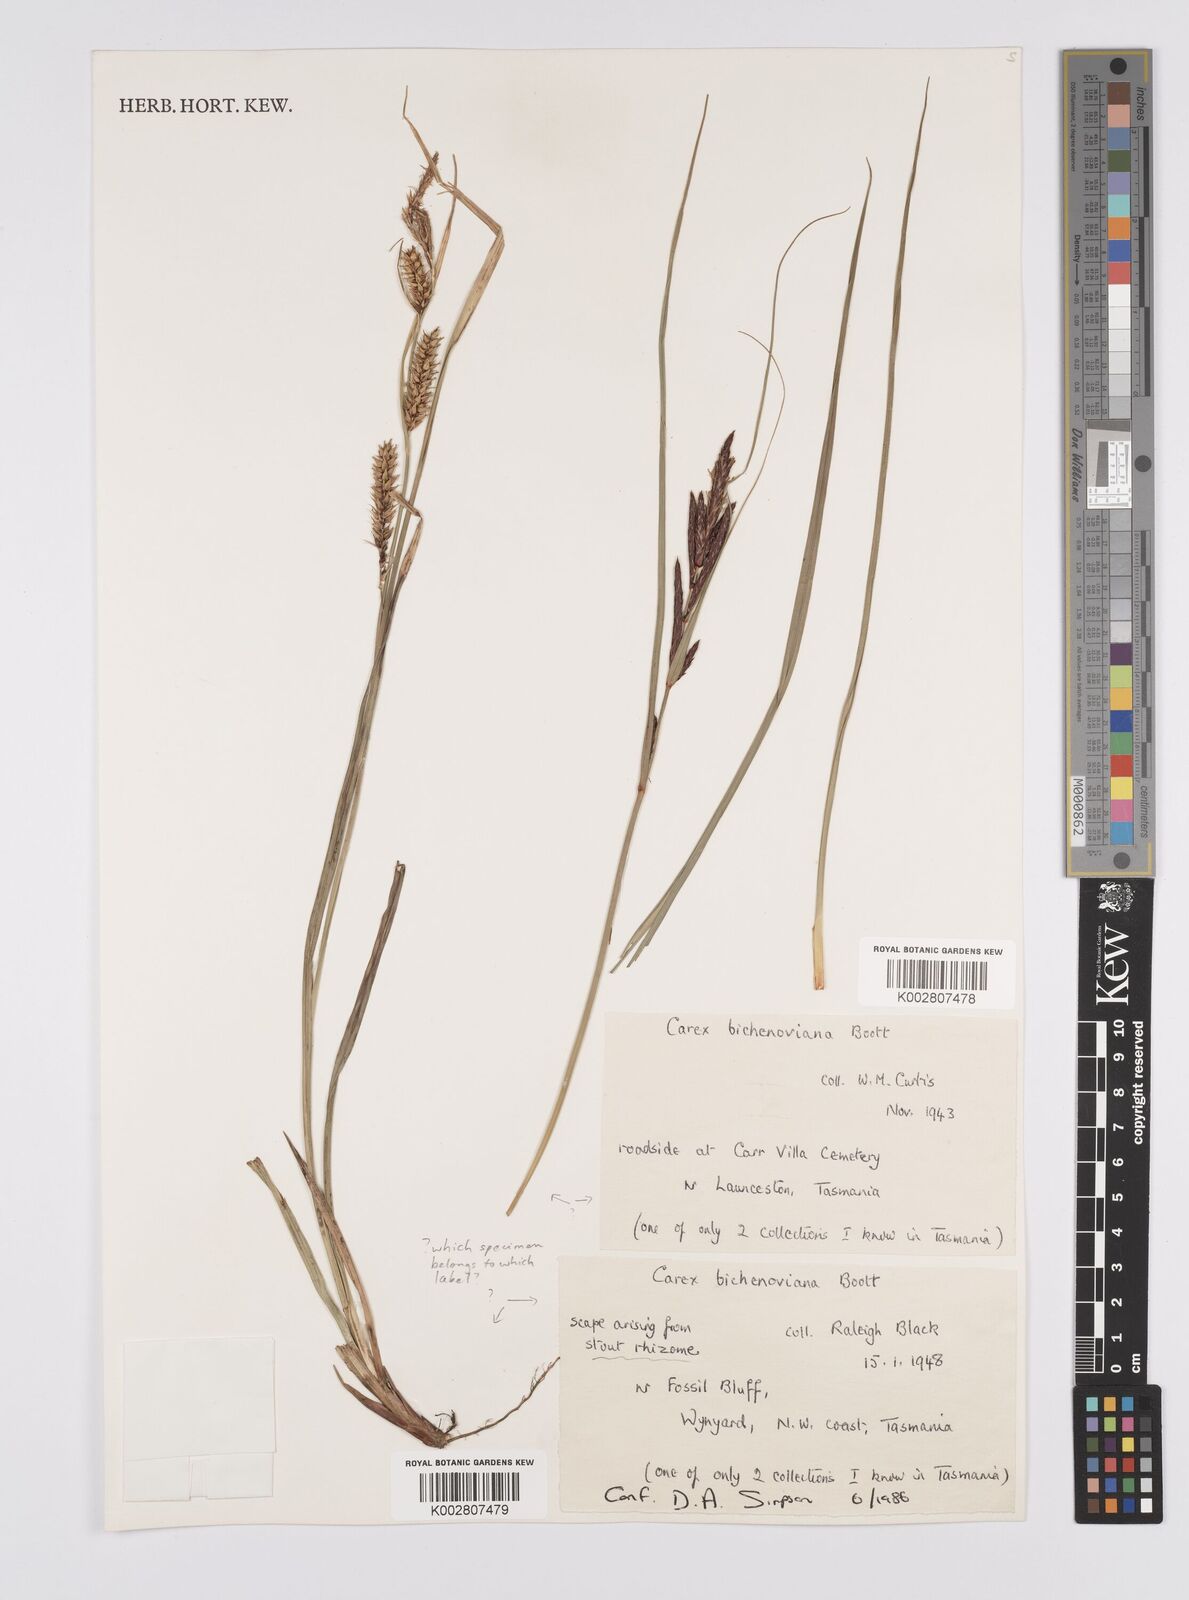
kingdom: Plantae
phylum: Tracheophyta
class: Liliopsida
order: Poales
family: Cyperaceae
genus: Carex
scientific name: Carex bichenoviana
